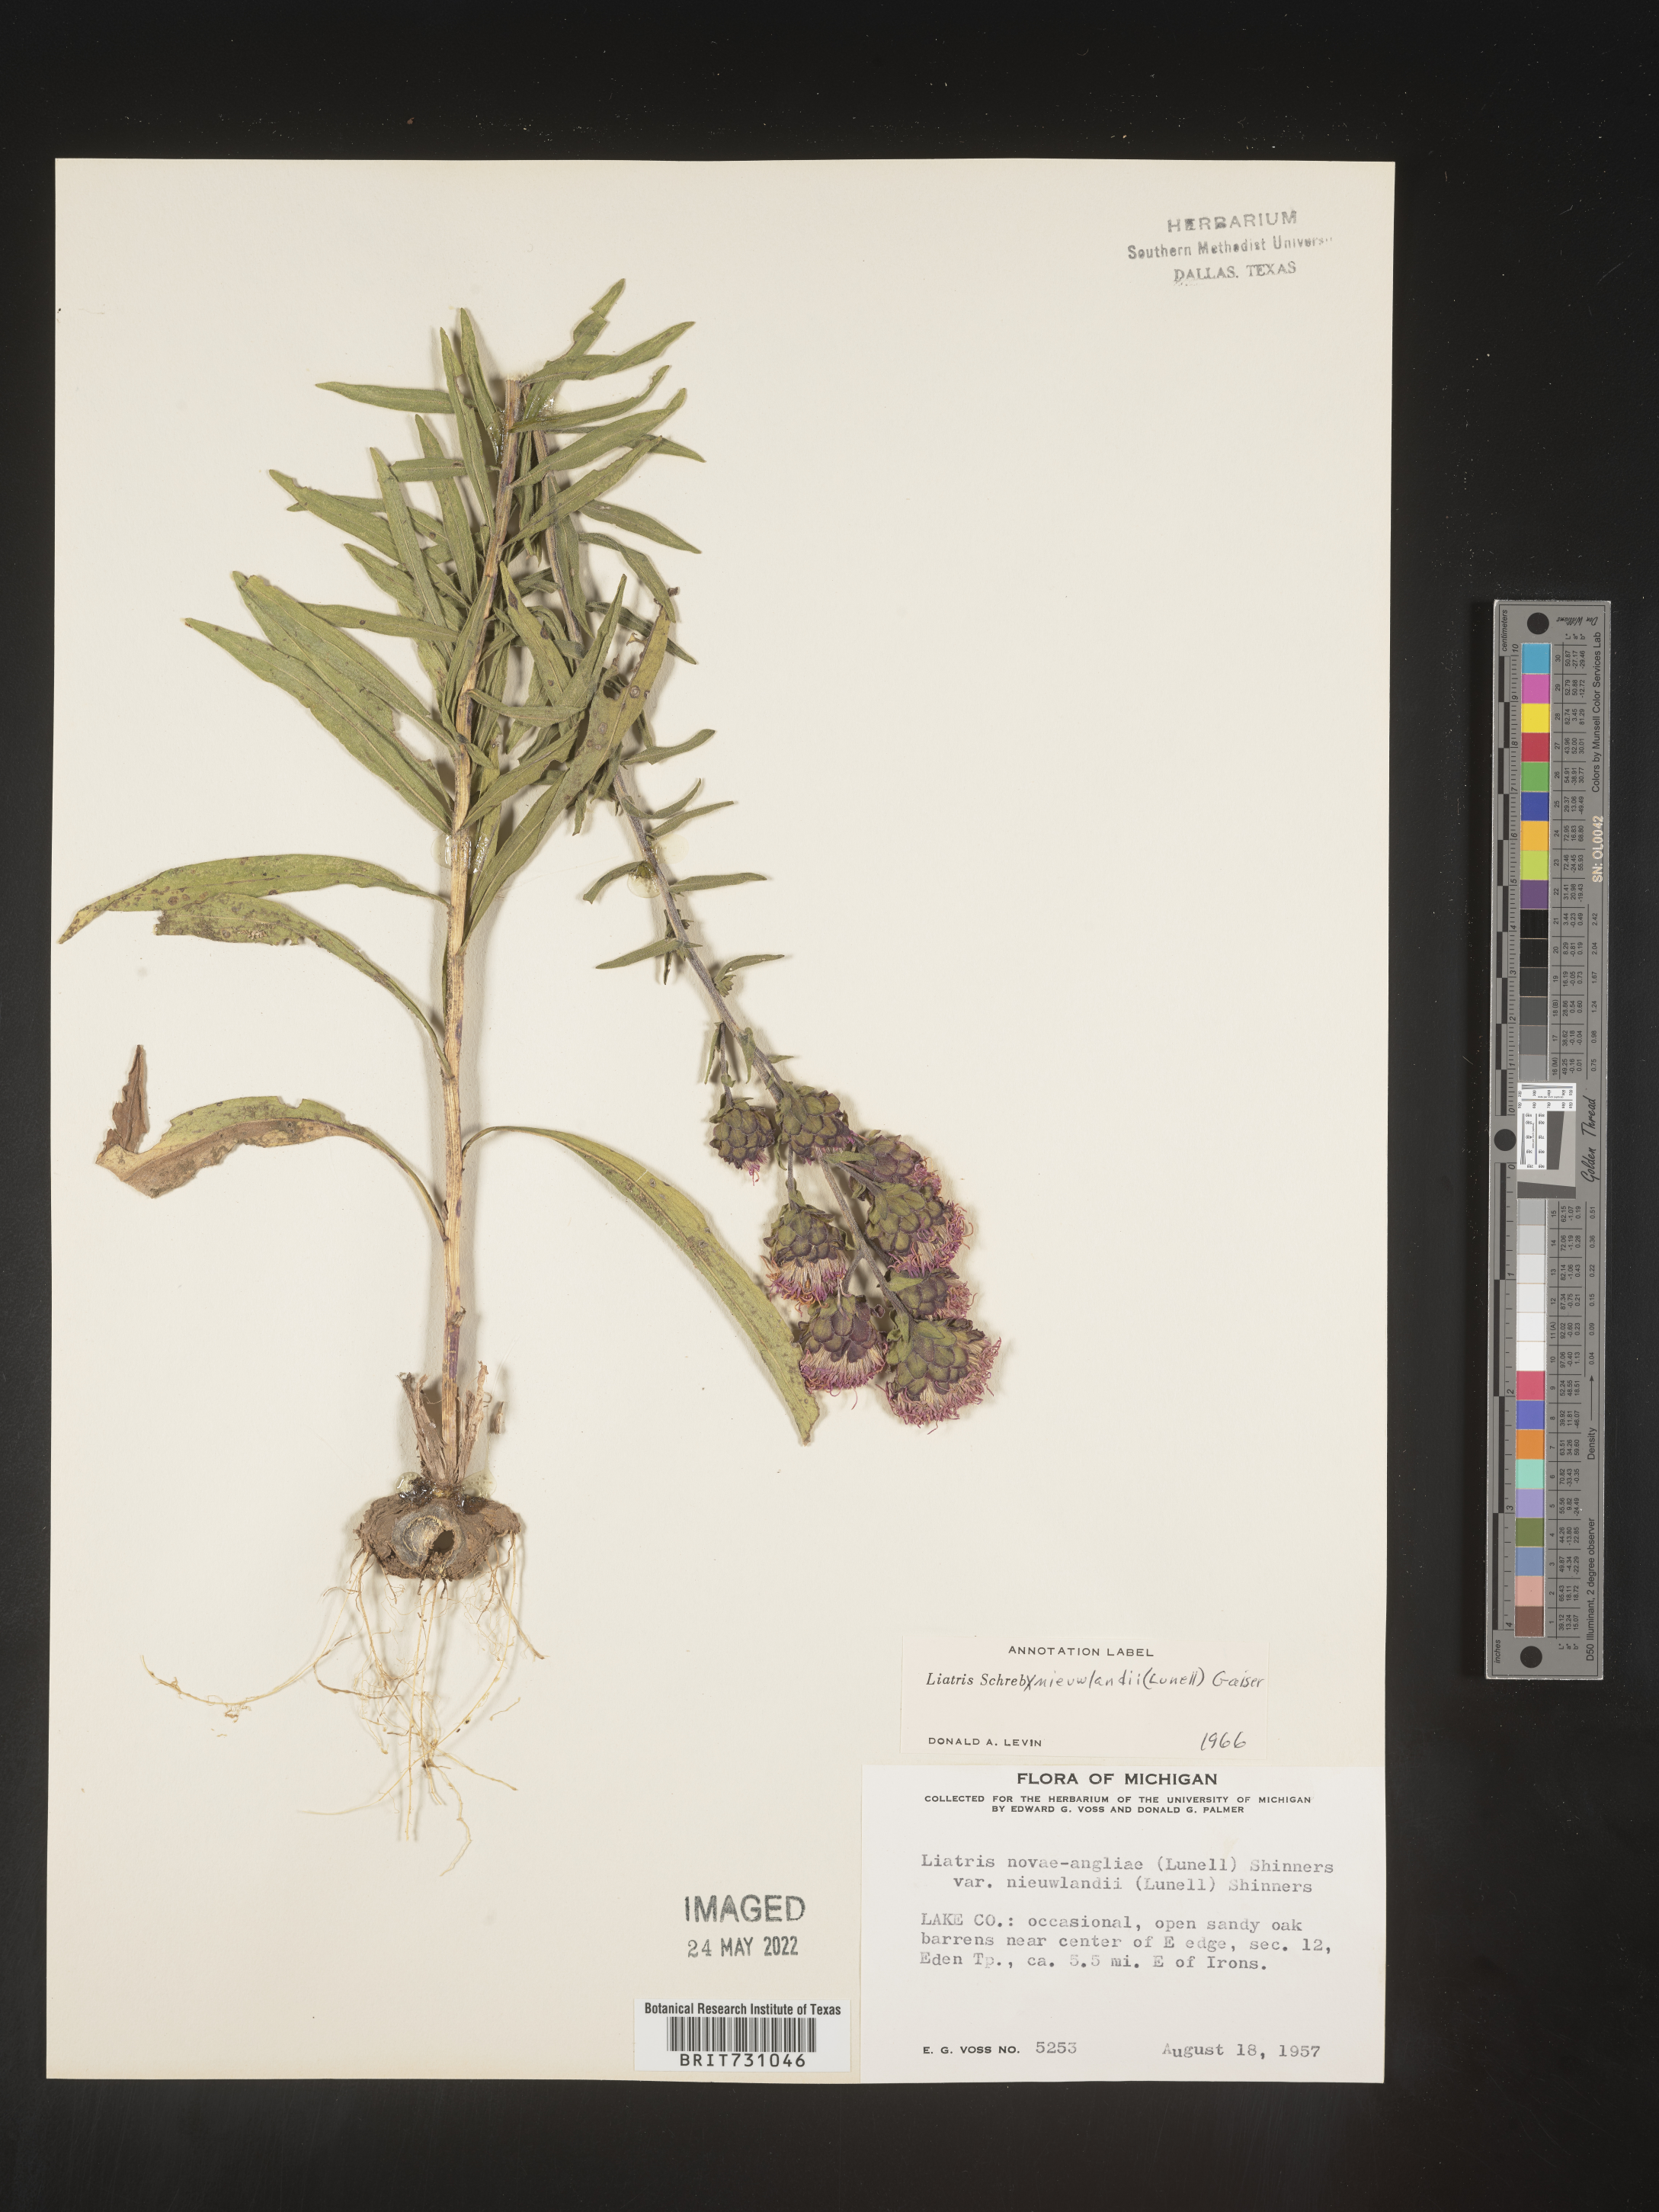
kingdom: Plantae
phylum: Tracheophyta
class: Magnoliopsida
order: Asterales
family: Asteraceae
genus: Liatris
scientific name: Liatris scariosa
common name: Northern gayfeather
